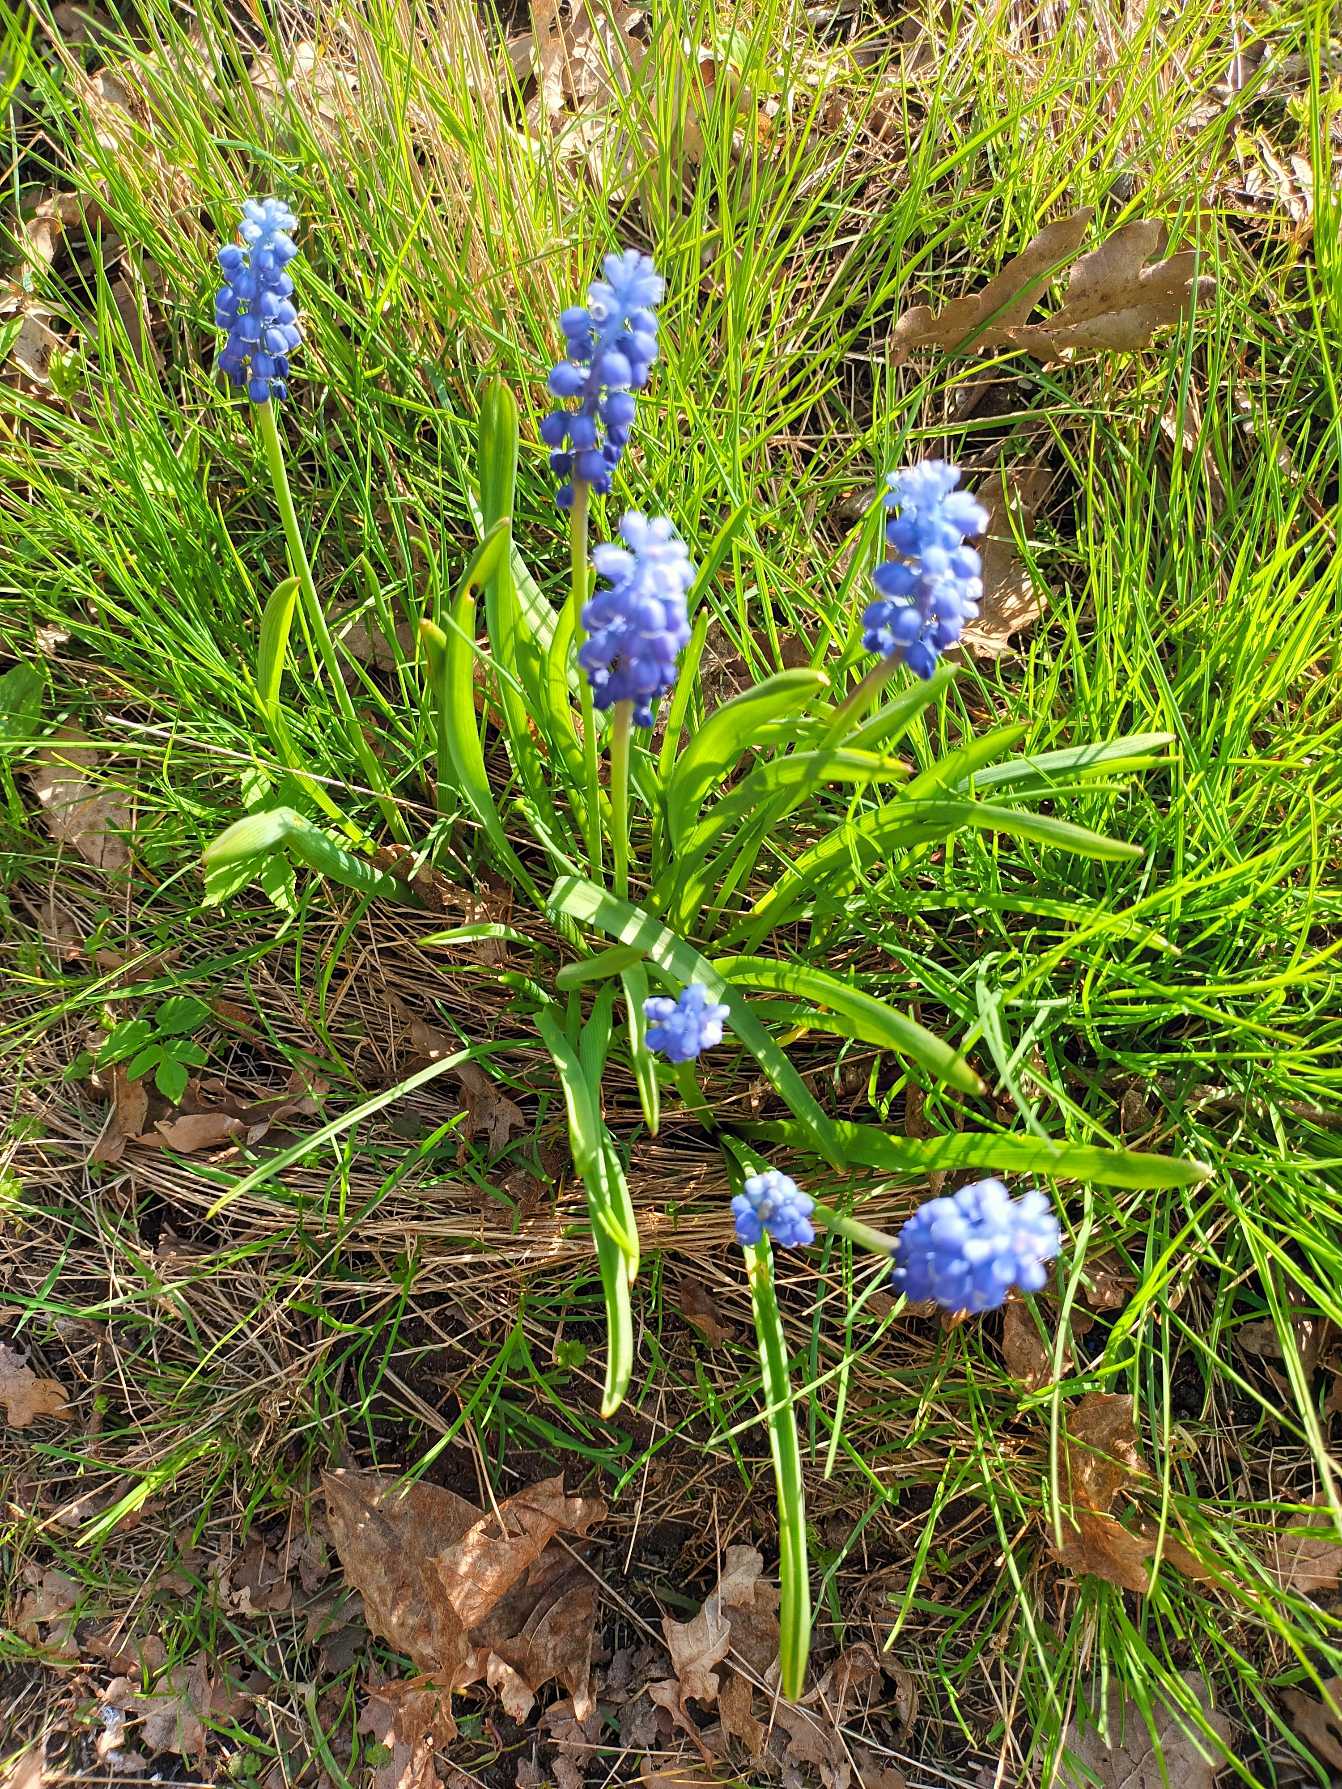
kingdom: Plantae
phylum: Tracheophyta
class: Liliopsida
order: Asparagales
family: Asparagaceae
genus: Muscari
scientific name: Muscari botryoides
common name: Perlehyacint
